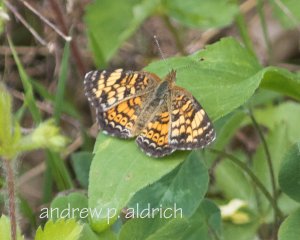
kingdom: Animalia
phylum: Arthropoda
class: Insecta
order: Lepidoptera
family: Nymphalidae
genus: Phyciodes
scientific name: Phyciodes
